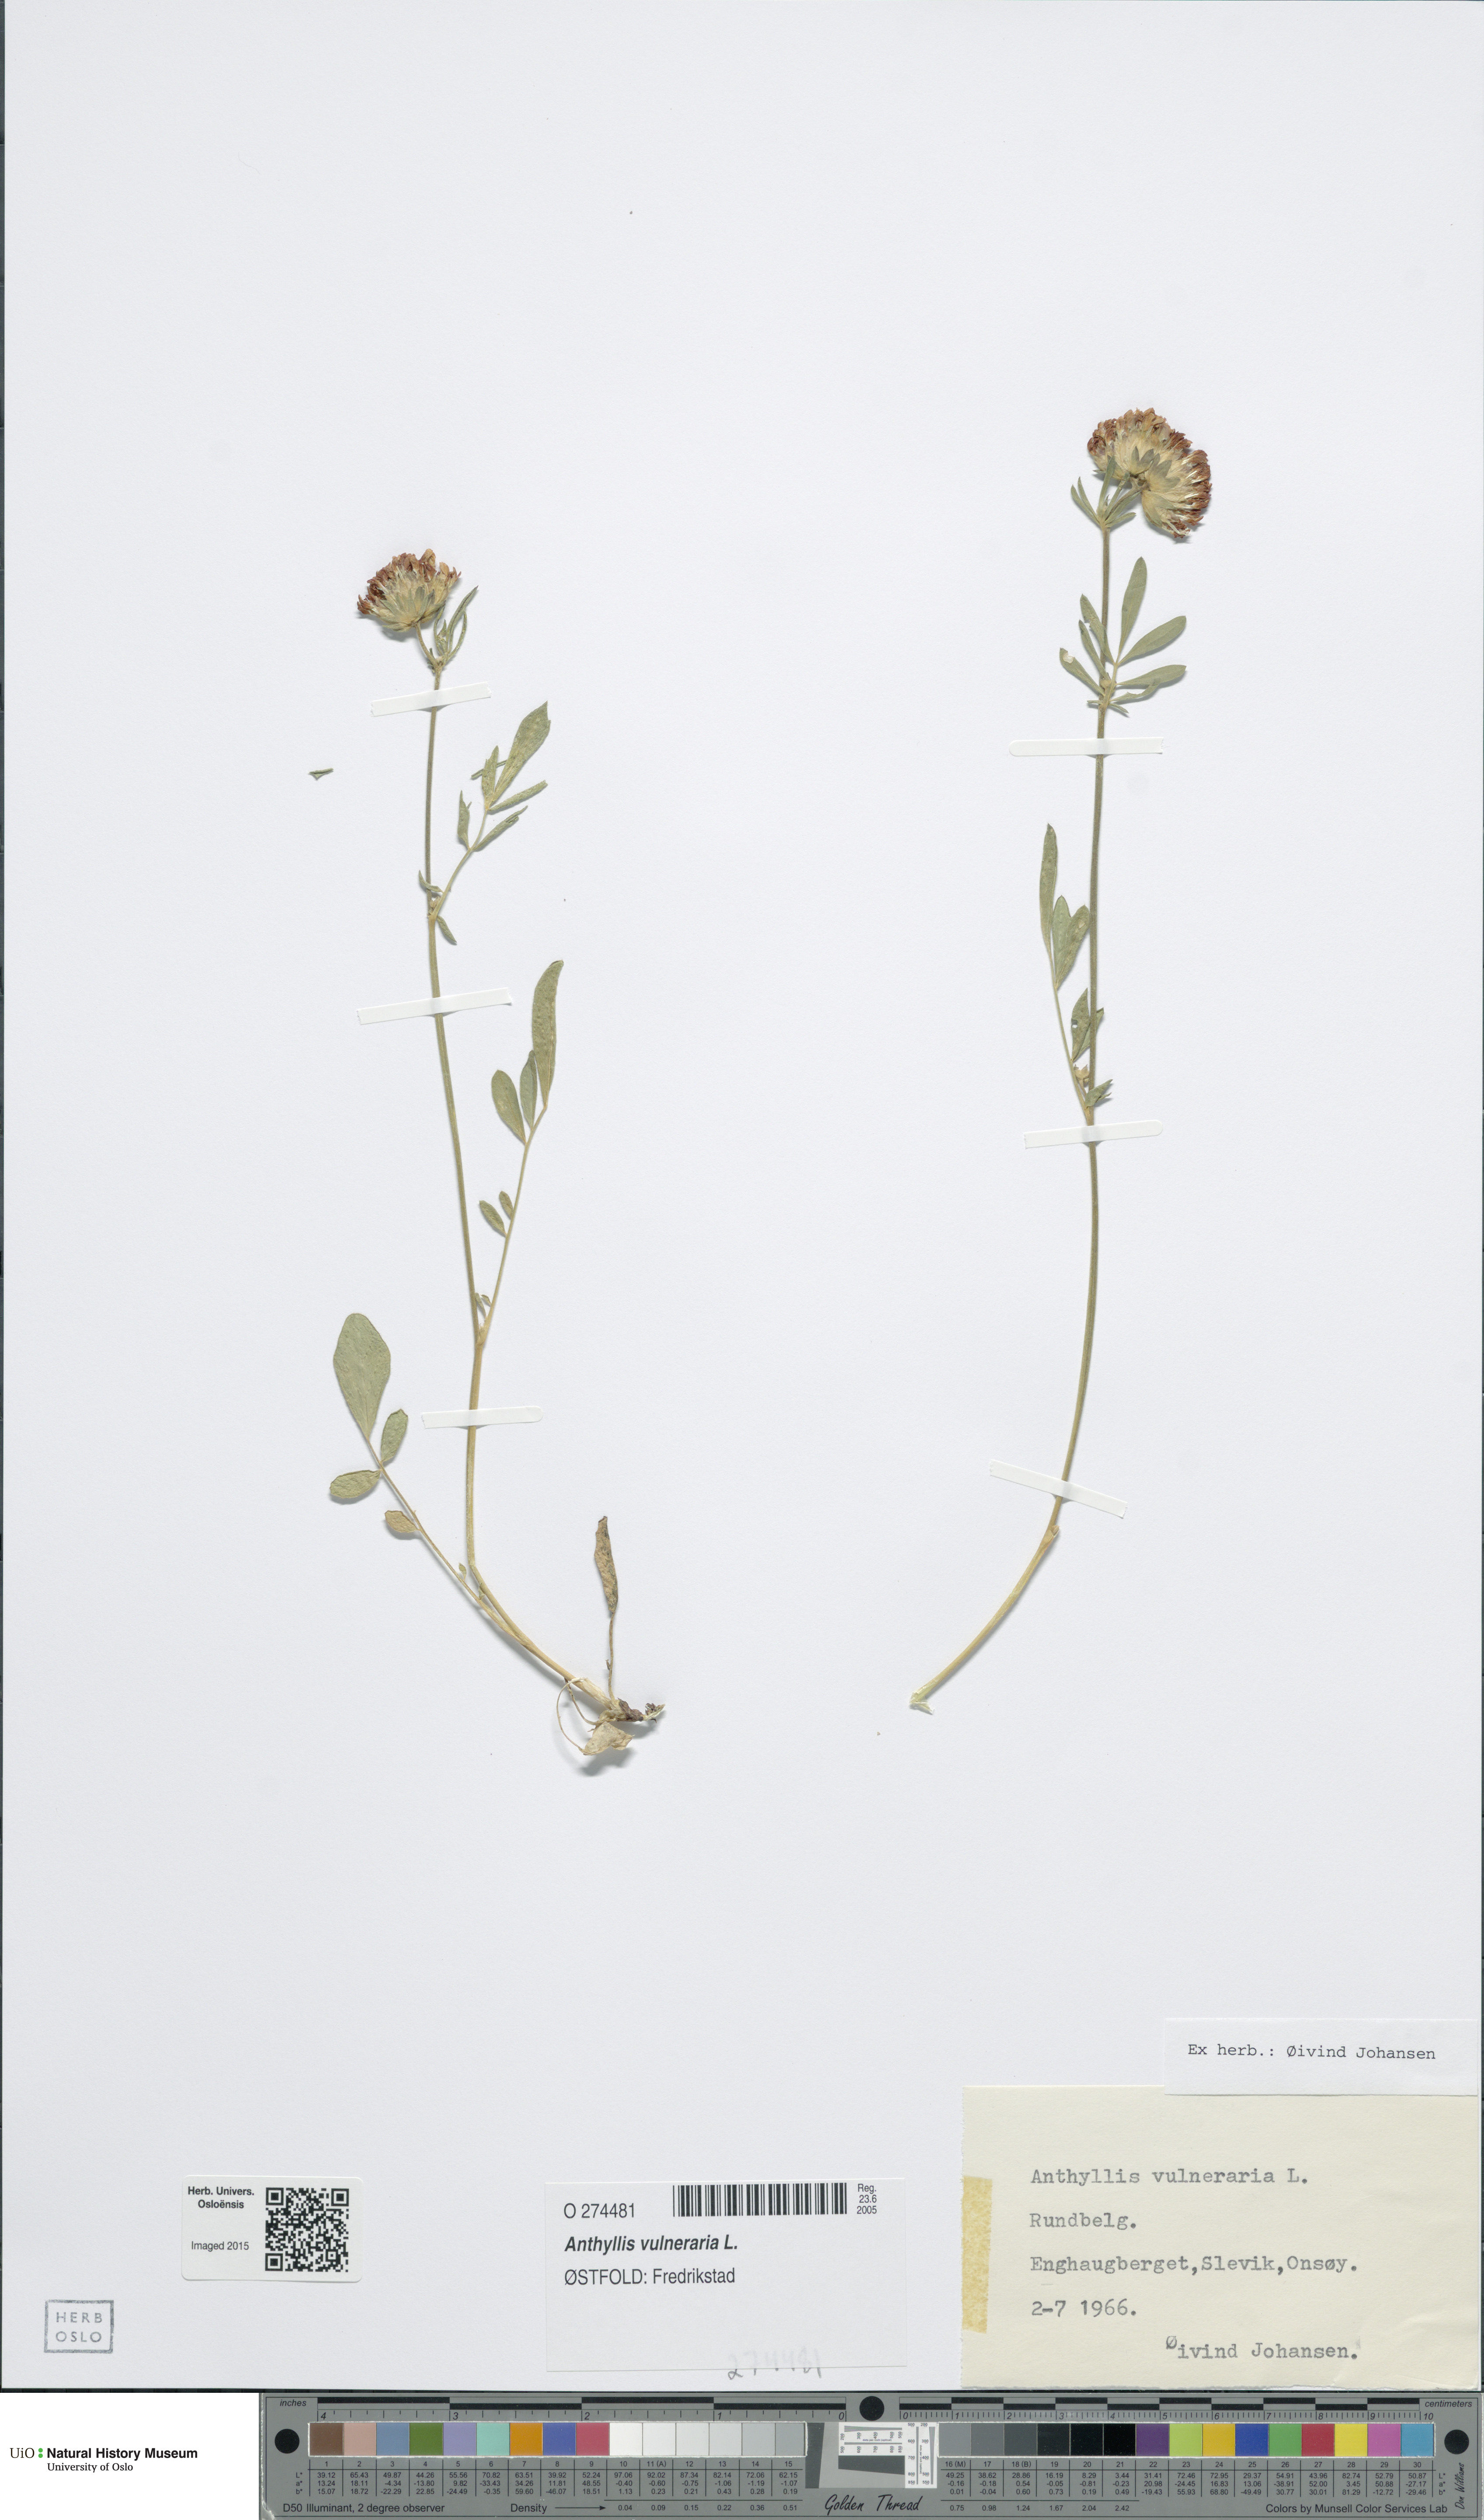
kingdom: Plantae
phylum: Tracheophyta
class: Magnoliopsida
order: Fabales
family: Fabaceae
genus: Anthyllis
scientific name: Anthyllis vulneraria
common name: Kidney vetch
